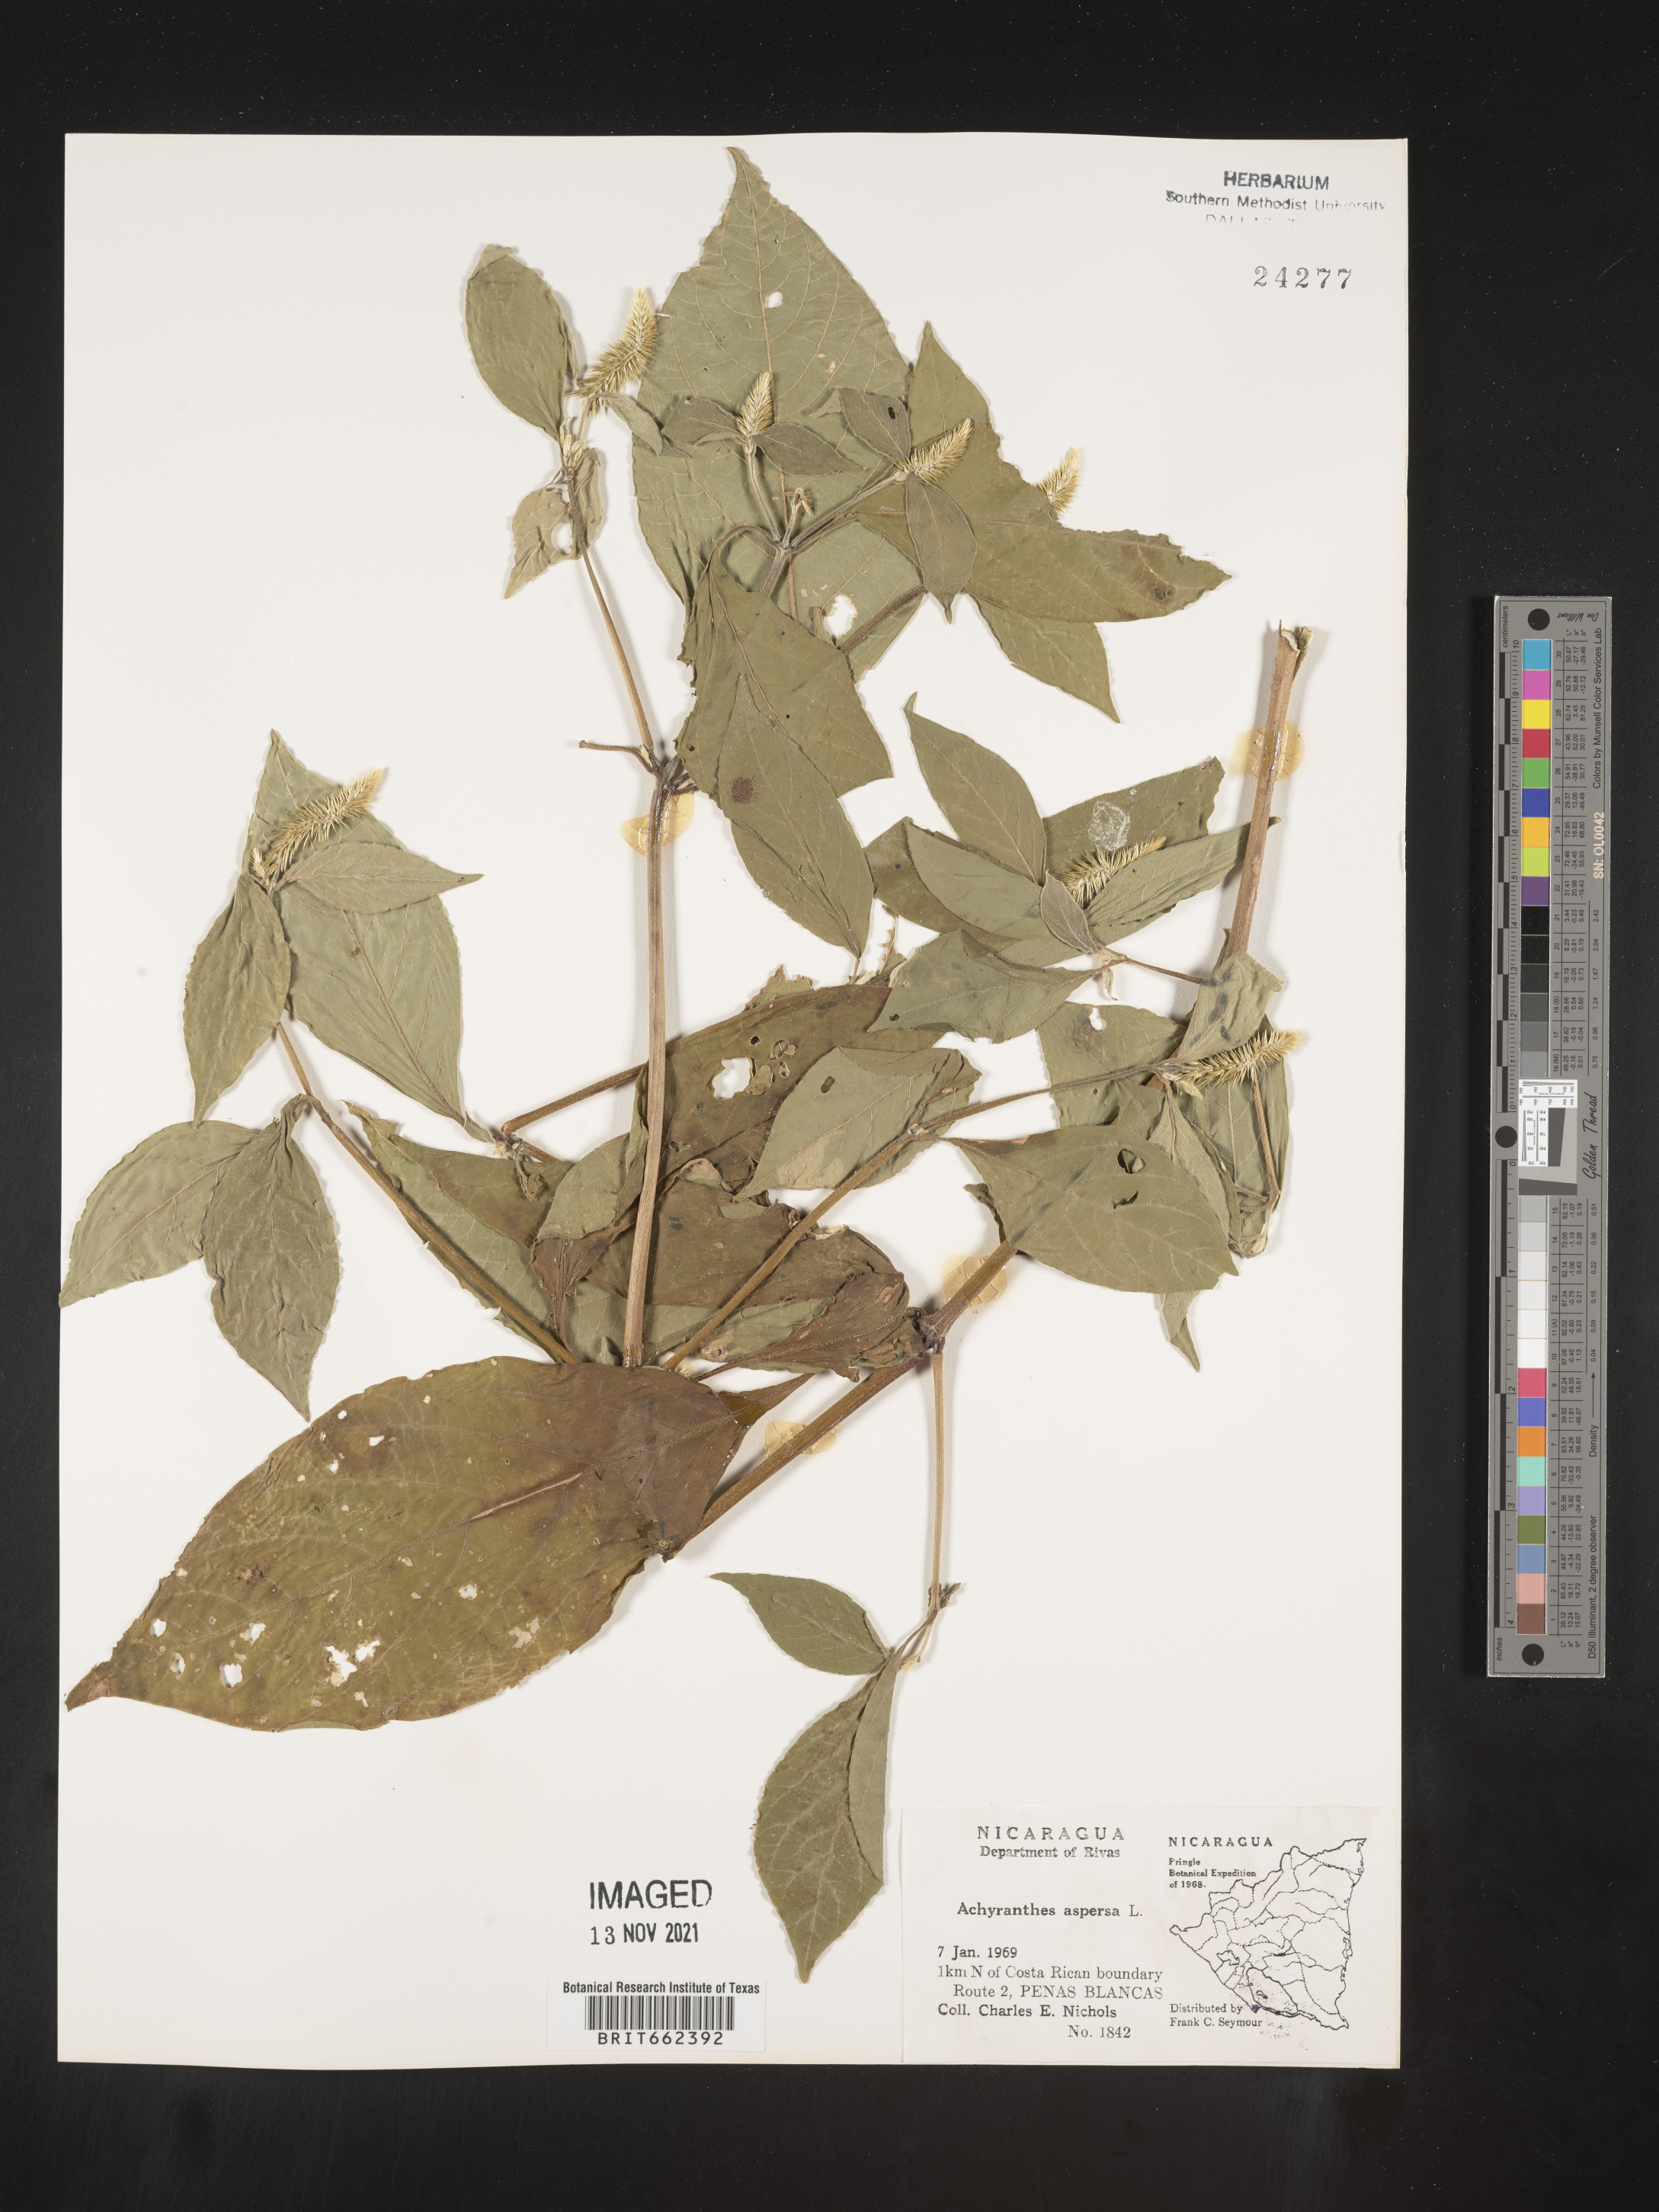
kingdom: Plantae
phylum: Tracheophyta
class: Magnoliopsida
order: Caryophyllales
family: Amaranthaceae
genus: Achyranthes
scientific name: Achyranthes
